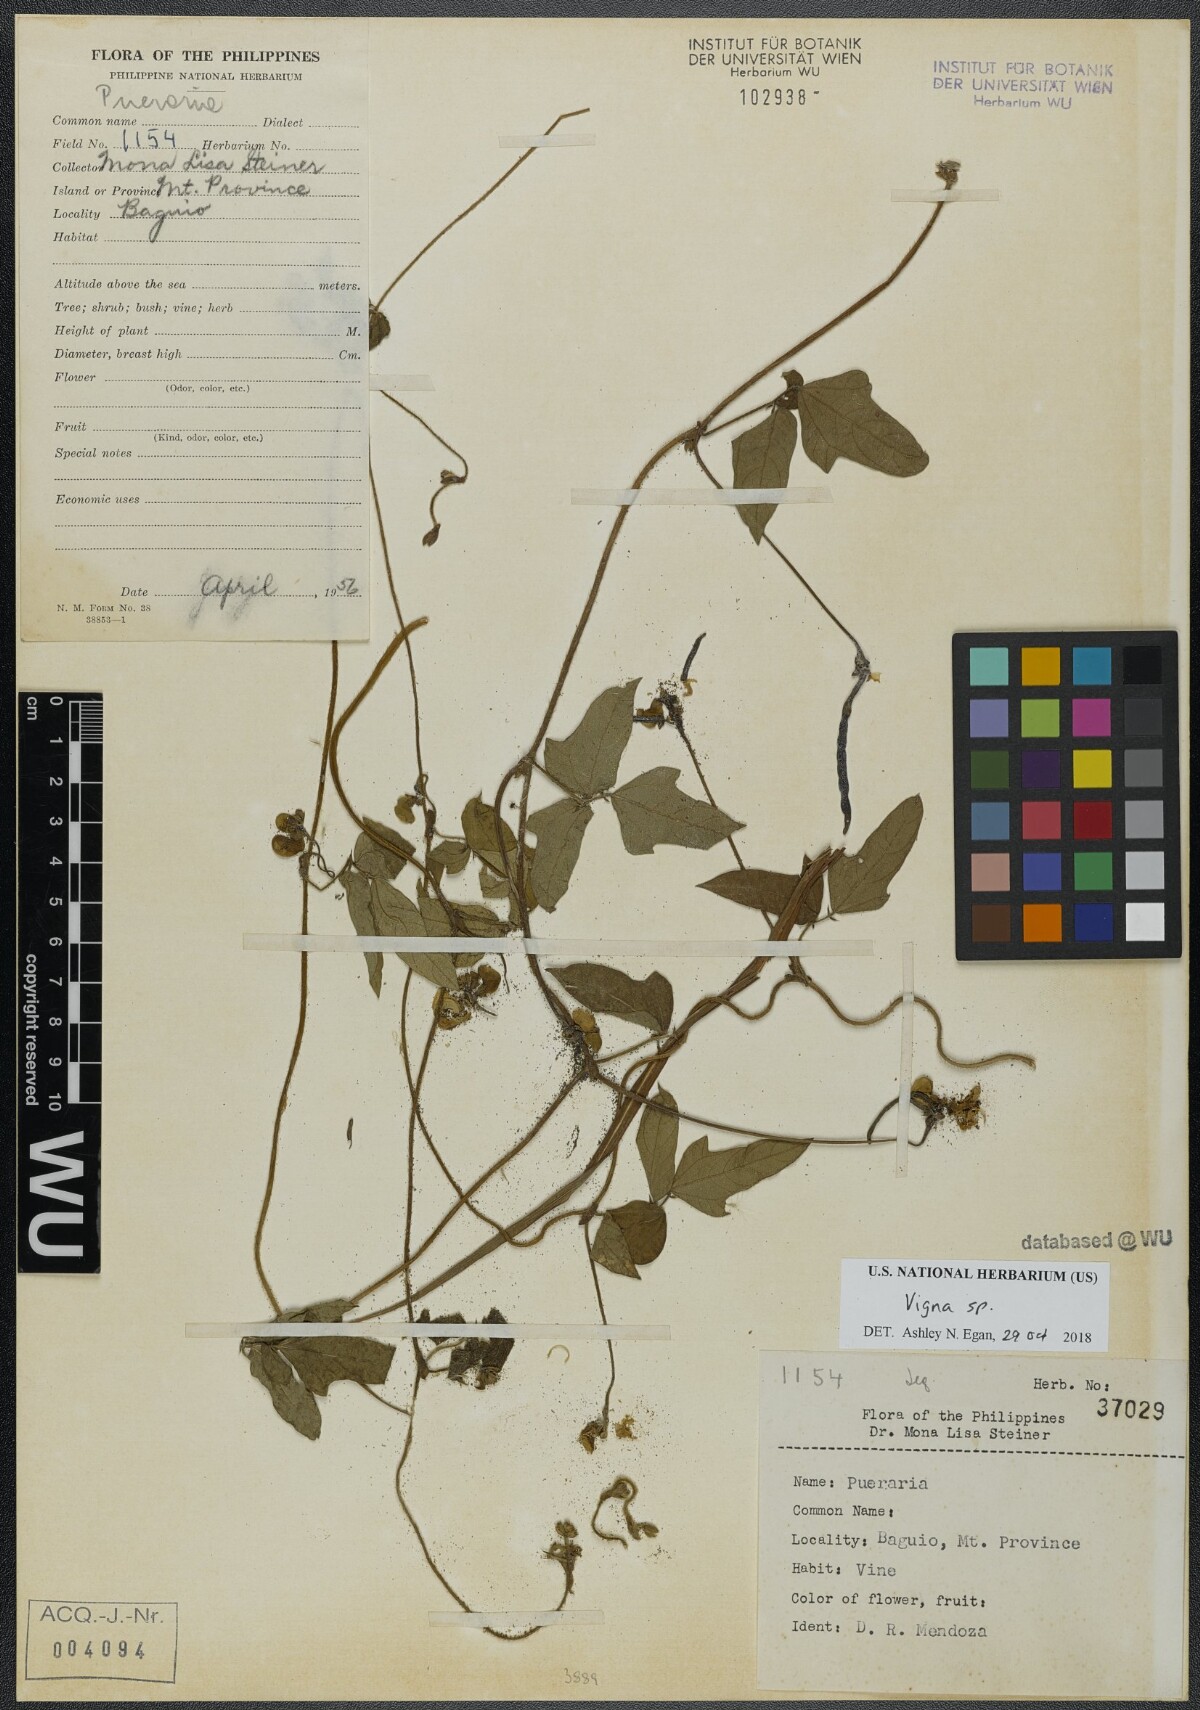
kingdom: Plantae
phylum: Tracheophyta
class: Magnoliopsida
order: Fabales
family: Fabaceae
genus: Vigna
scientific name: Vigna
